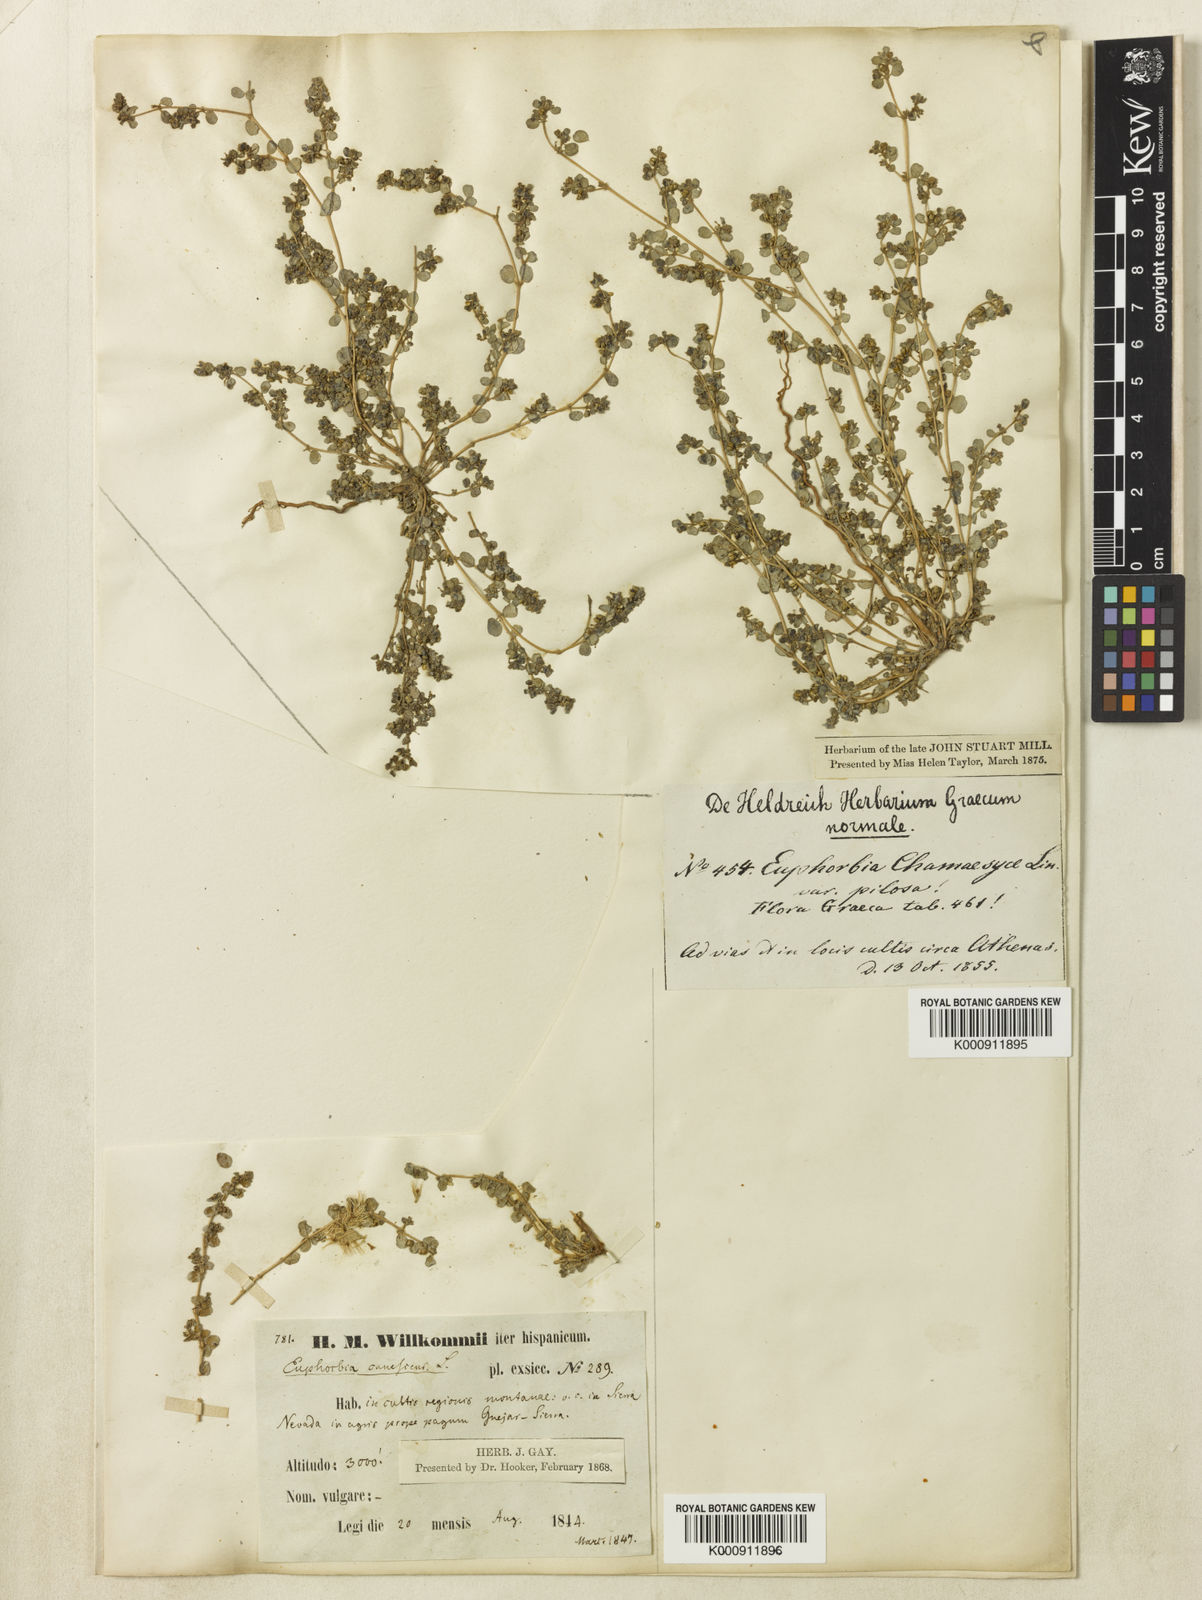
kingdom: Plantae
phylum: Tracheophyta
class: Magnoliopsida
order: Malpighiales
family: Euphorbiaceae
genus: Euphorbia
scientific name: Euphorbia chamaesyce
